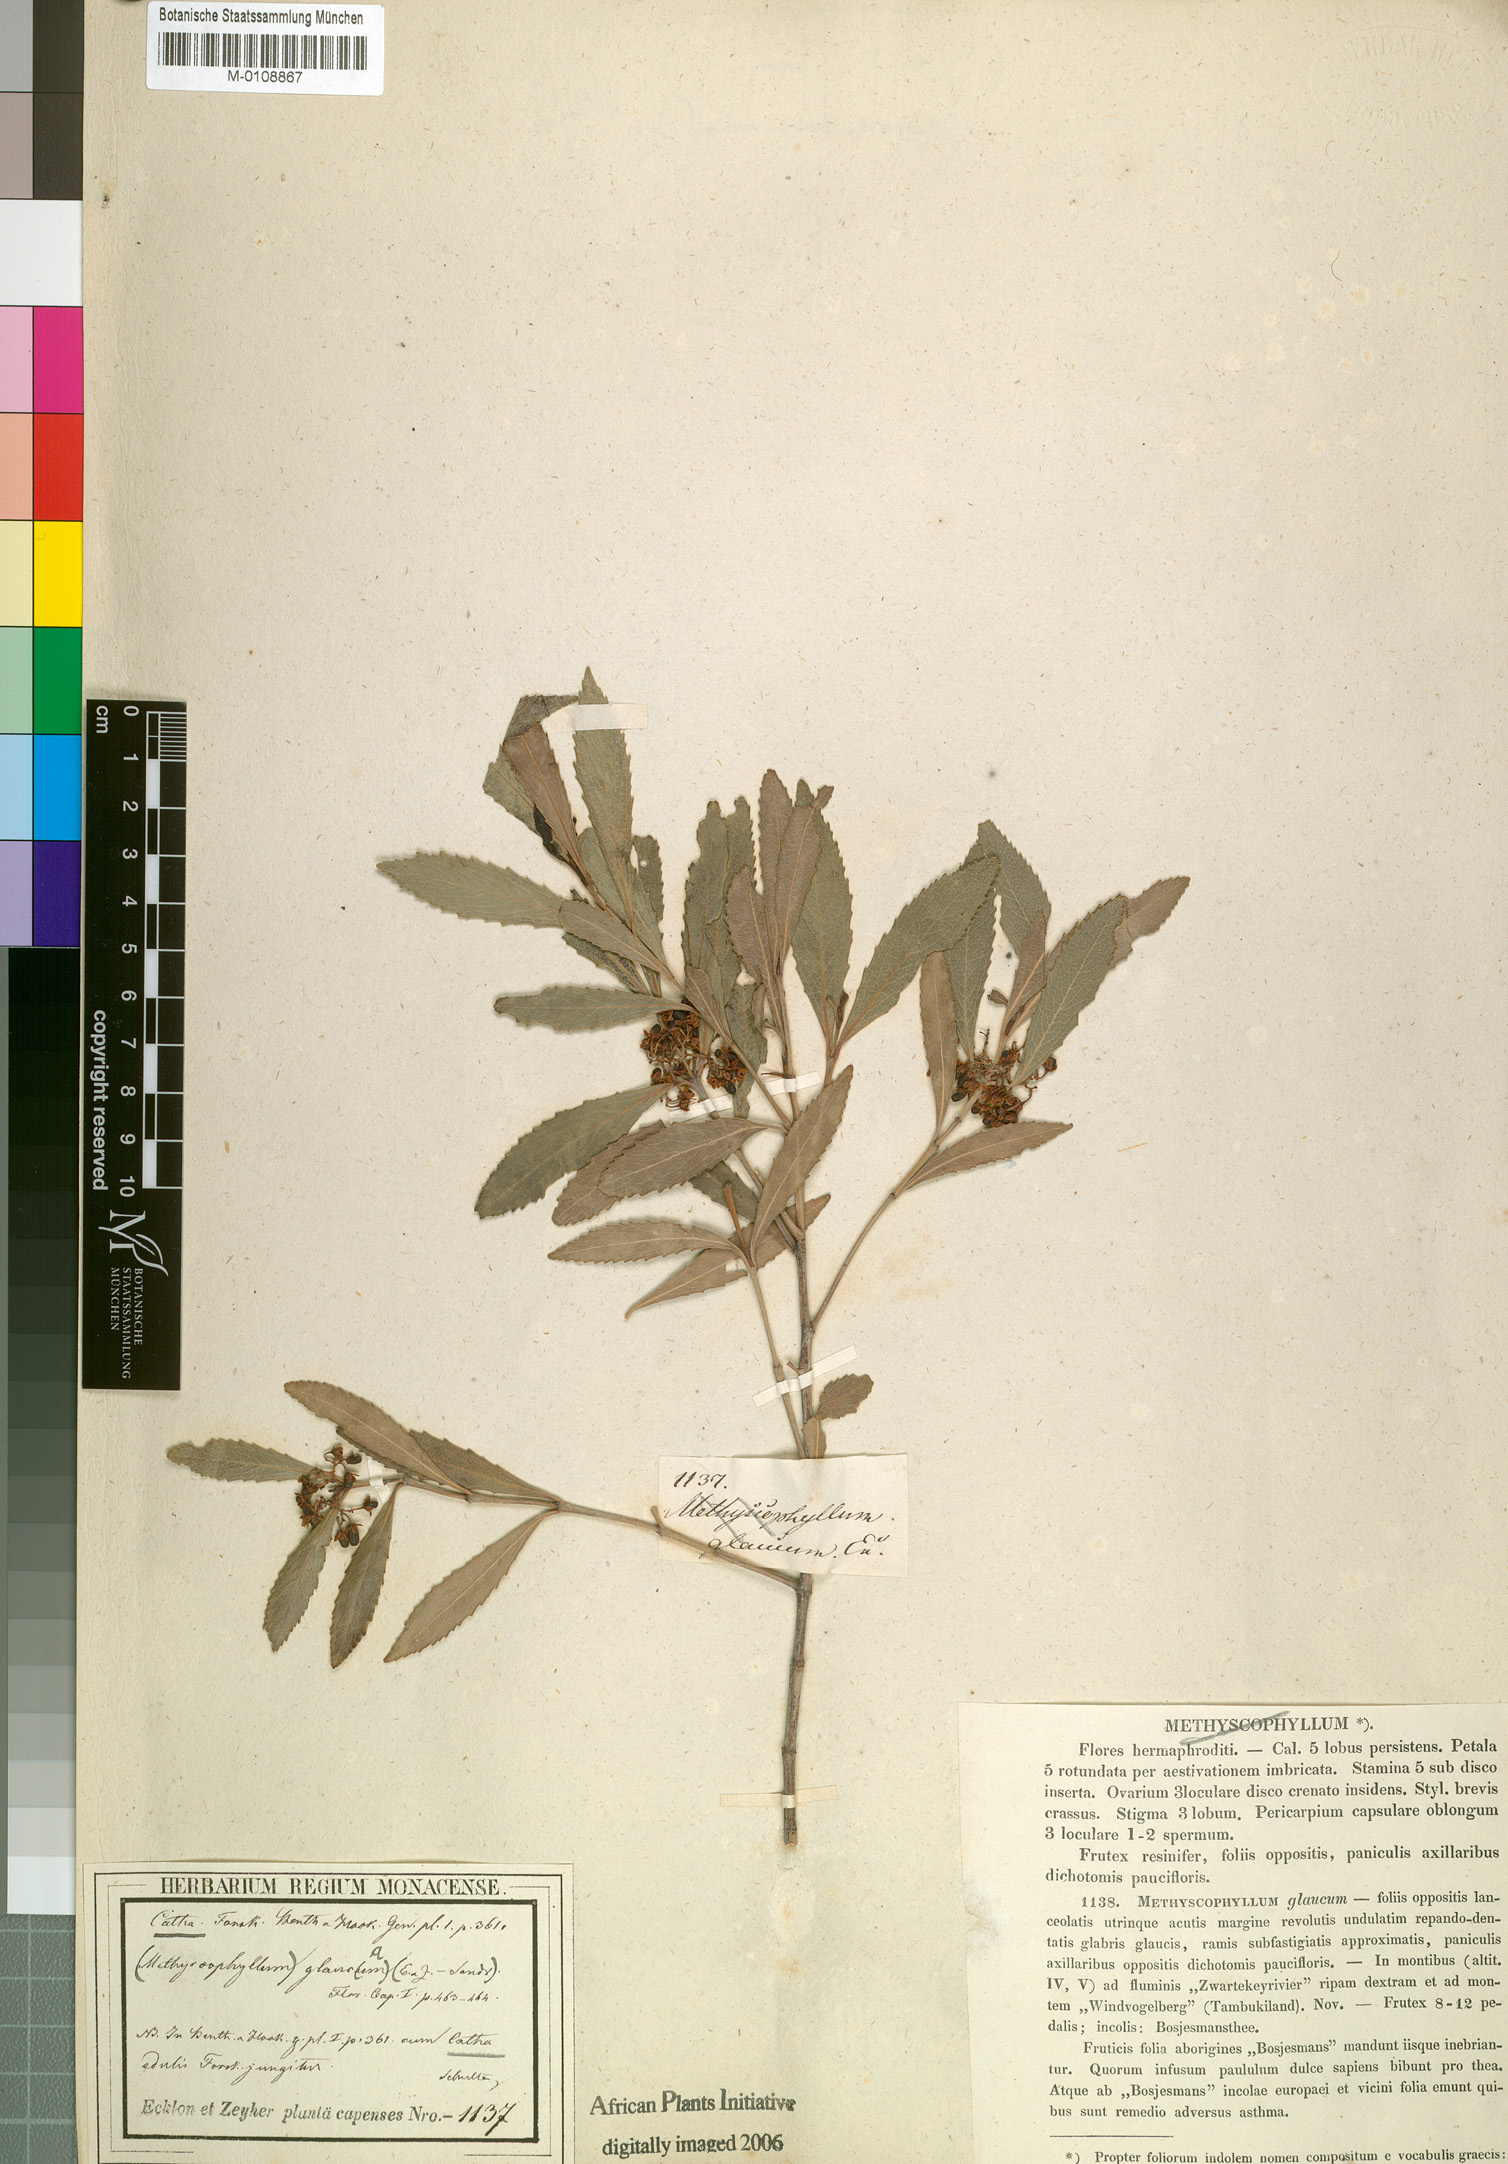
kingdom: Plantae
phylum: Tracheophyta
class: Magnoliopsida
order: Celastrales
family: Celastraceae
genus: Catha
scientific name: Catha edulis
